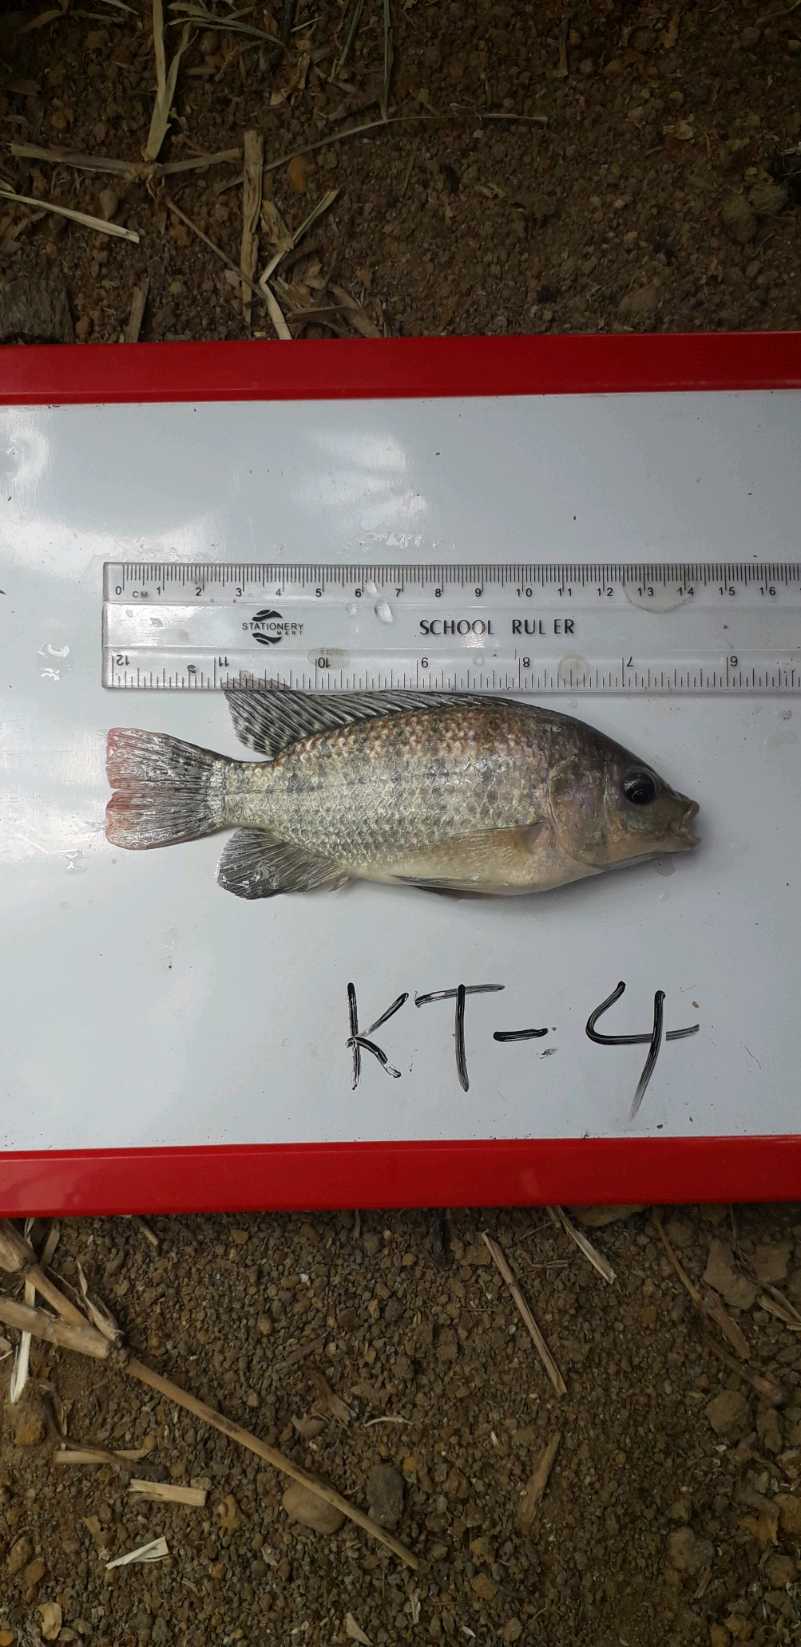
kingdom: Animalia
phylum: Chordata
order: Perciformes
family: Cichlidae
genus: Oreochromis
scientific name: Oreochromis
